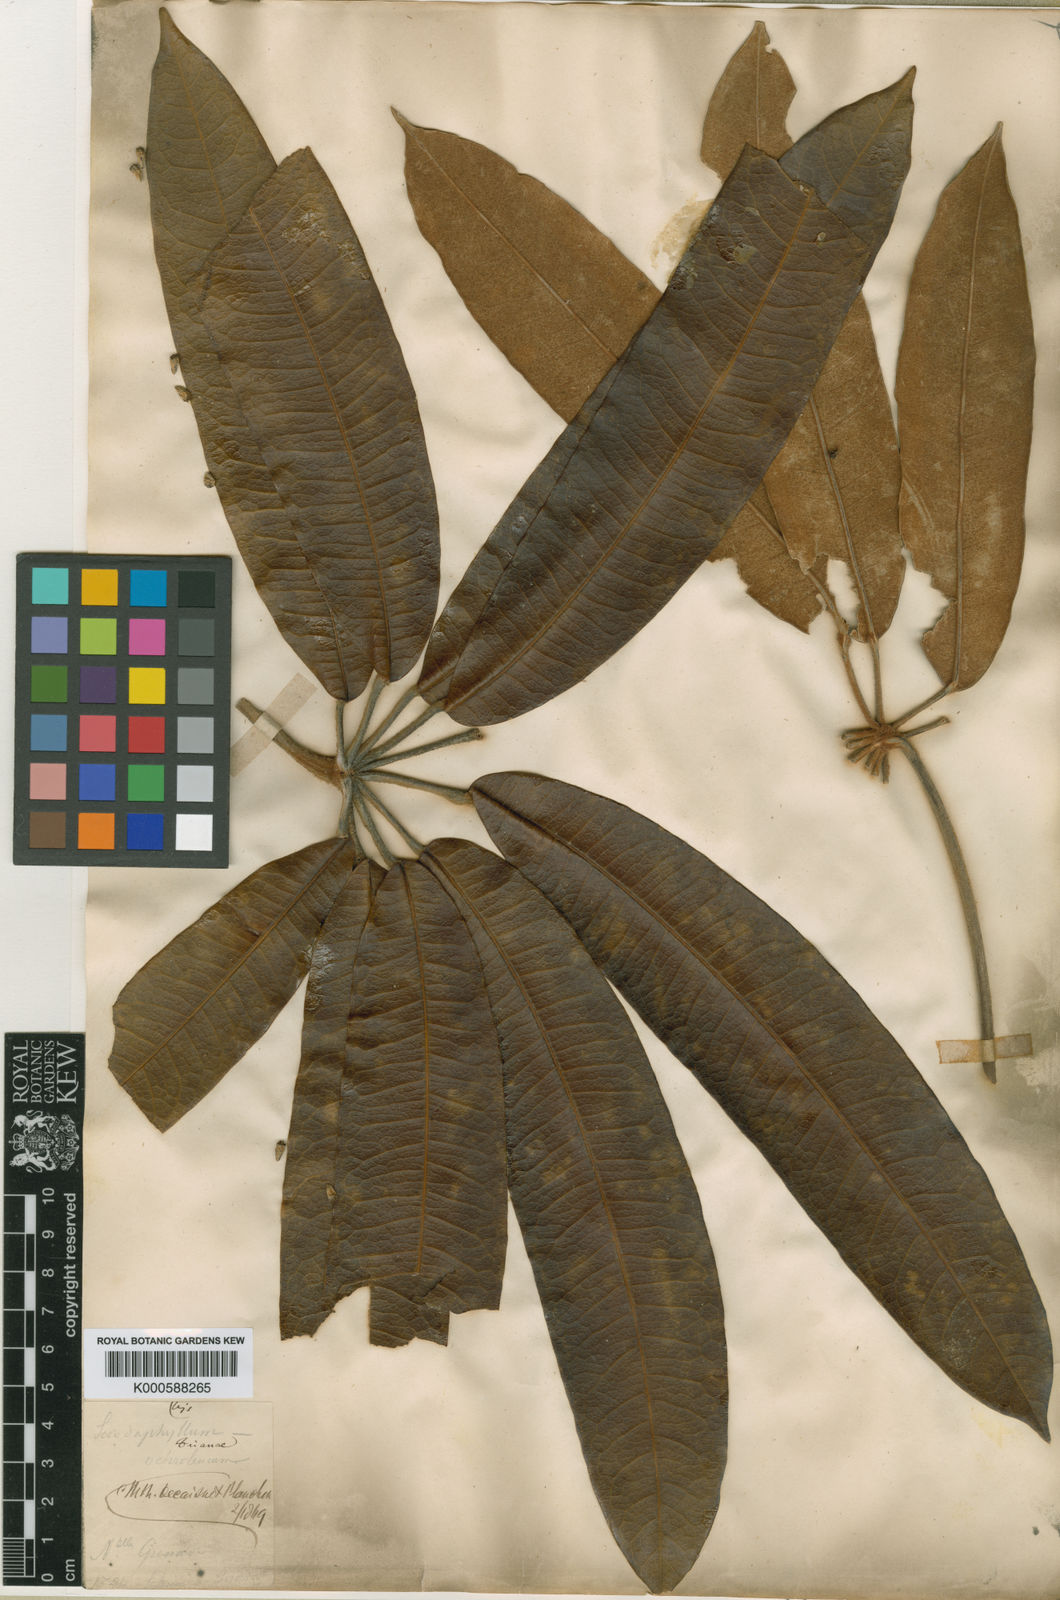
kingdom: Plantae
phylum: Tracheophyta
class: Magnoliopsida
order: Apiales
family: Araliaceae
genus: Sciodaphyllum
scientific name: Sciodaphyllum trianae
